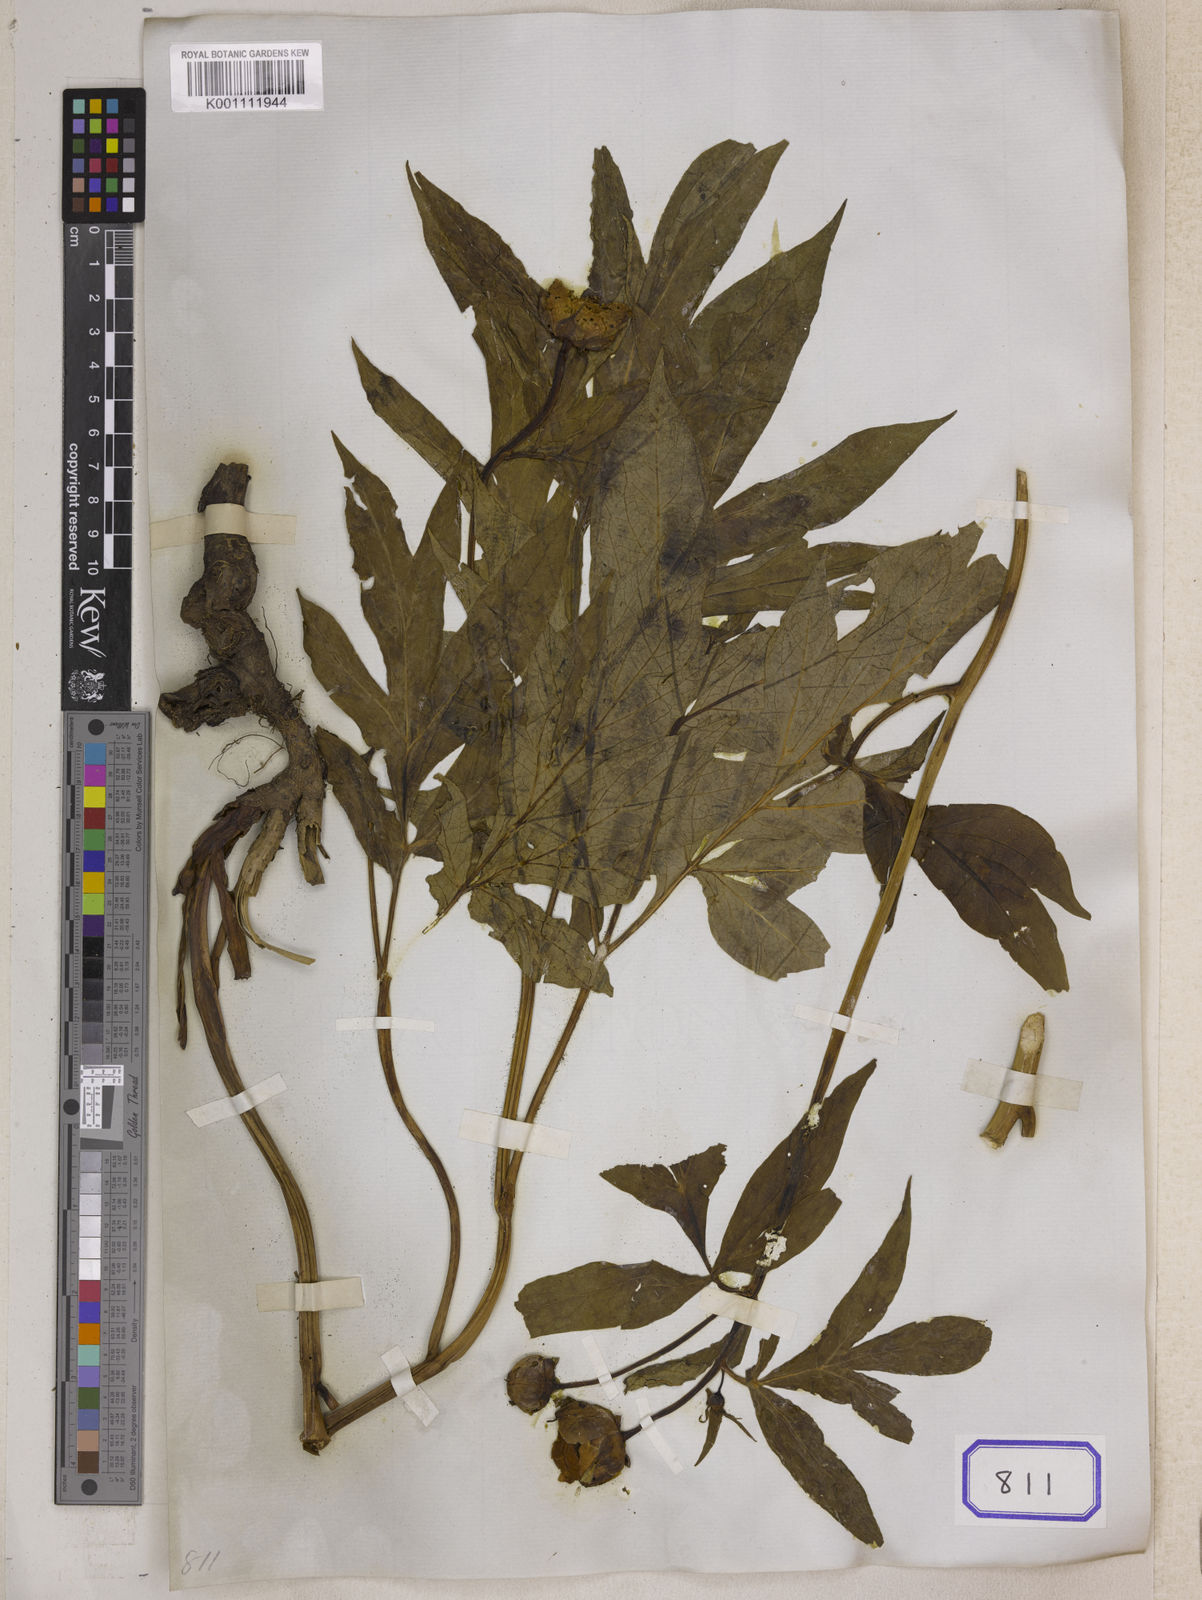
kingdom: Plantae
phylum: Tracheophyta
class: Magnoliopsida
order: Saxifragales
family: Paeoniaceae
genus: Paeonia
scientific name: Paeonia
